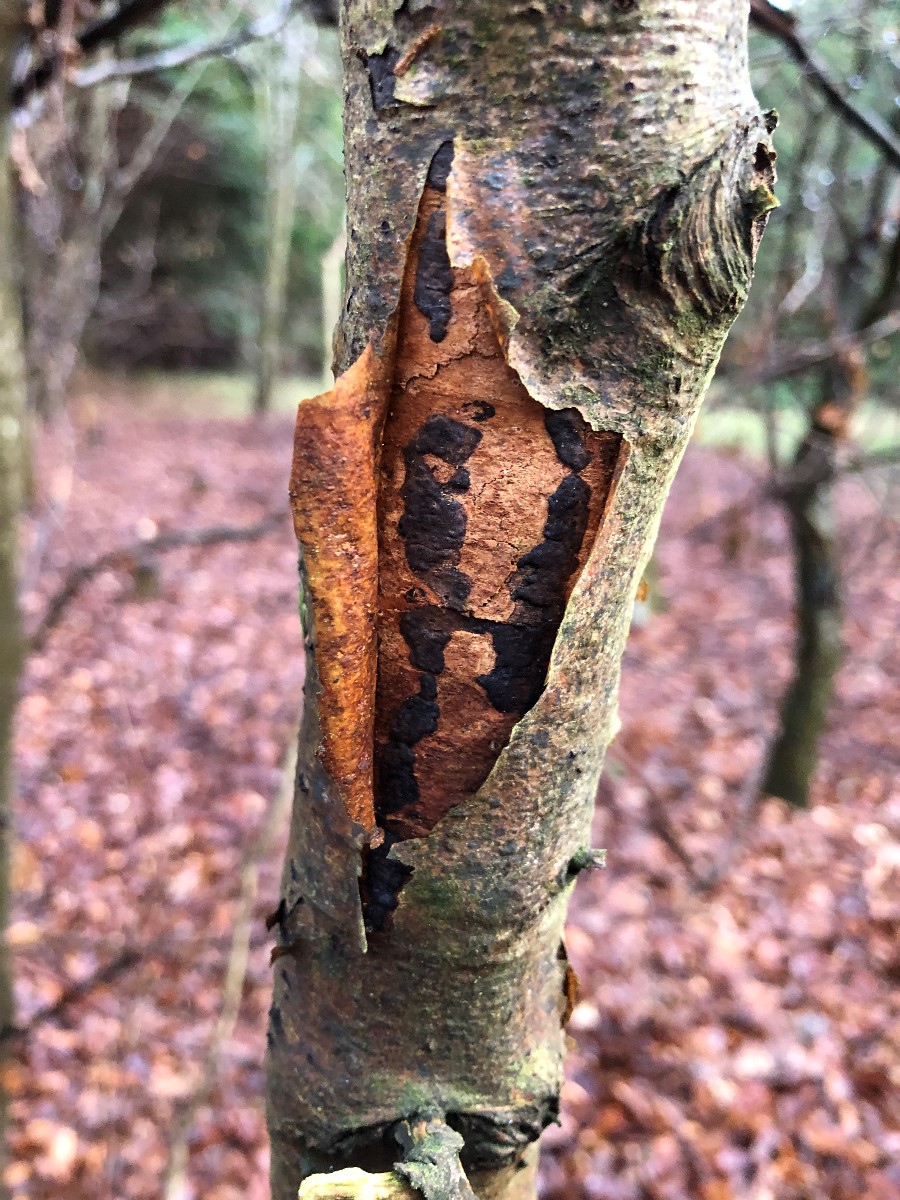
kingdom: Fungi
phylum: Ascomycota
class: Sordariomycetes
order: Xylariales
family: Diatrypaceae
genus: Diatrype
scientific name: Diatrype decorticata
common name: barksprænger-kulskorpe
